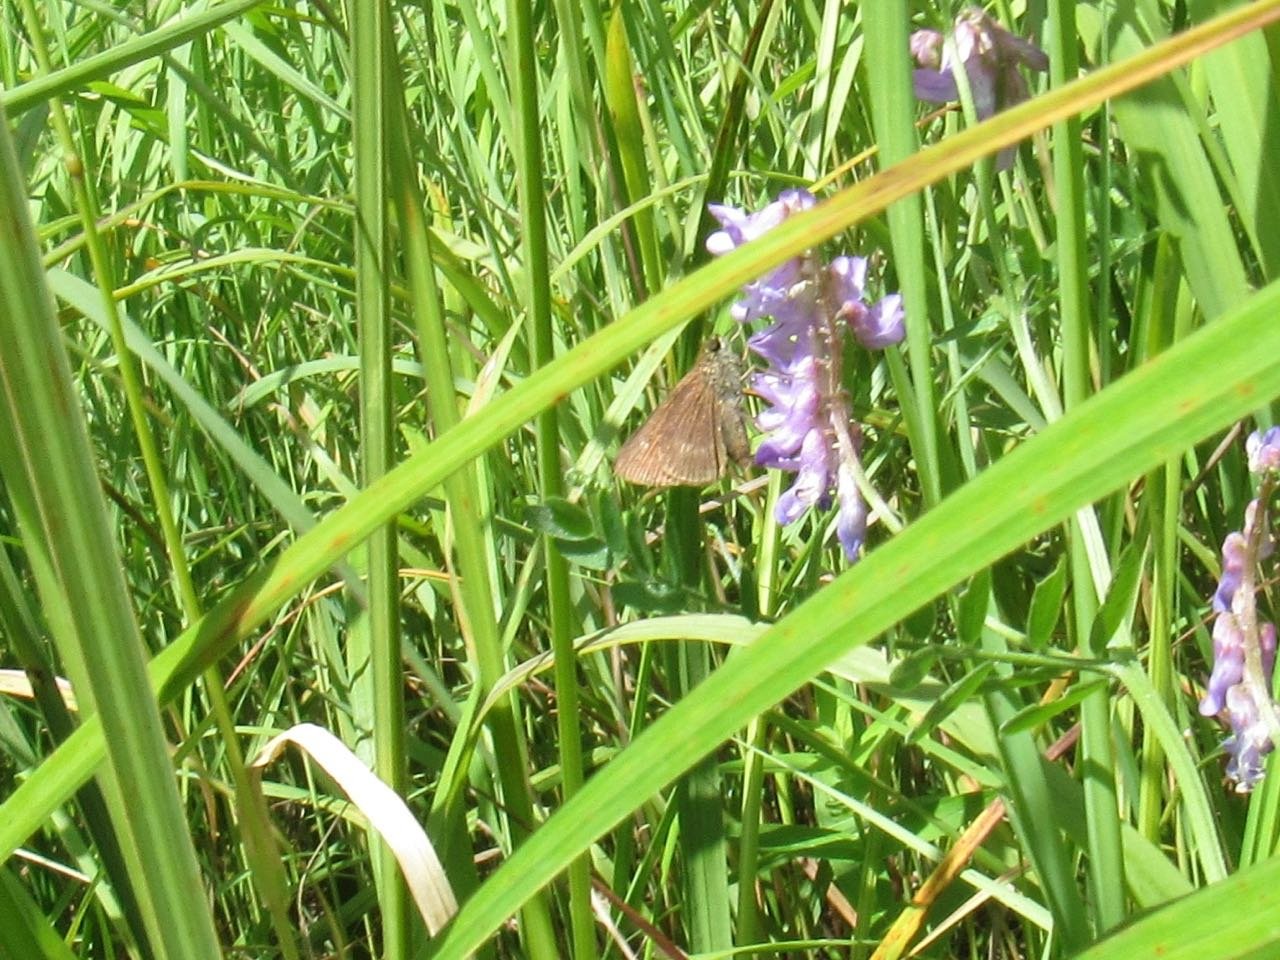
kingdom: Animalia
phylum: Arthropoda
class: Insecta
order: Lepidoptera
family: Hesperiidae
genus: Euphyes
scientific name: Euphyes vestris
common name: Dun Skipper
